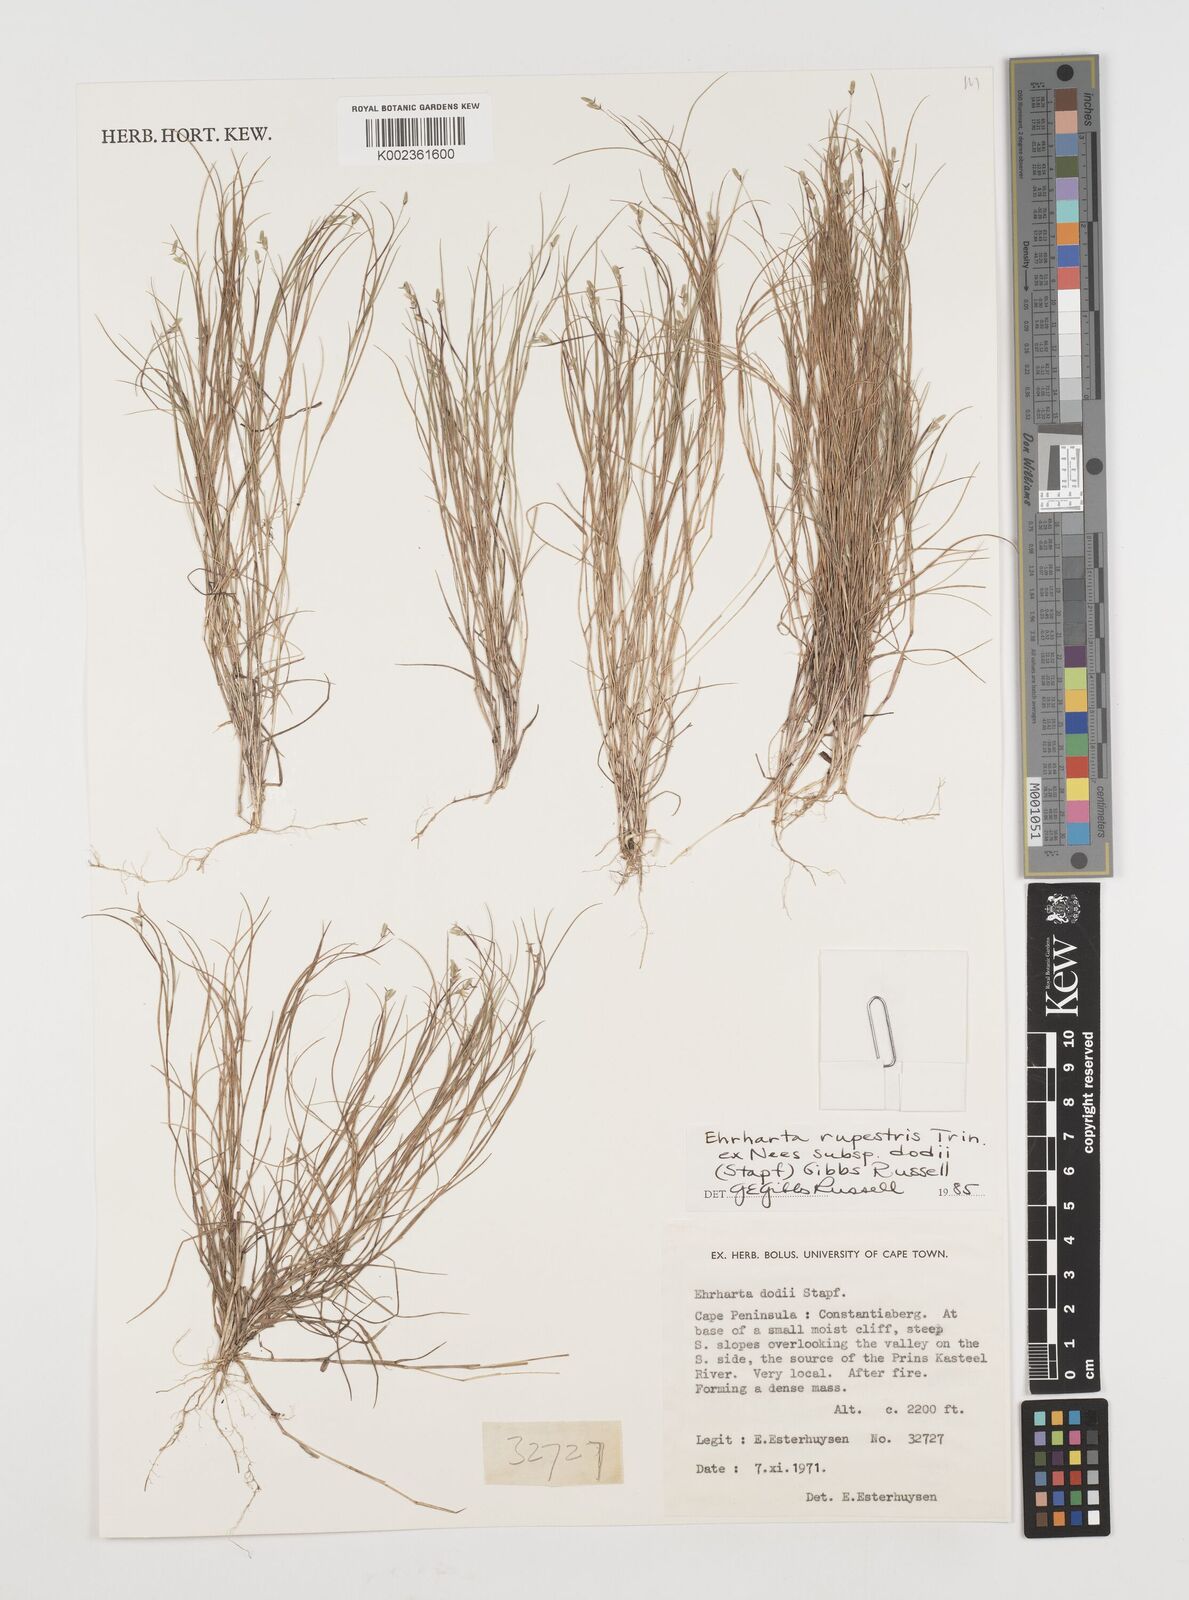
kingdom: Plantae
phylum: Tracheophyta
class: Liliopsida
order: Poales
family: Poaceae
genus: Ehrharta
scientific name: Ehrharta rupestris
